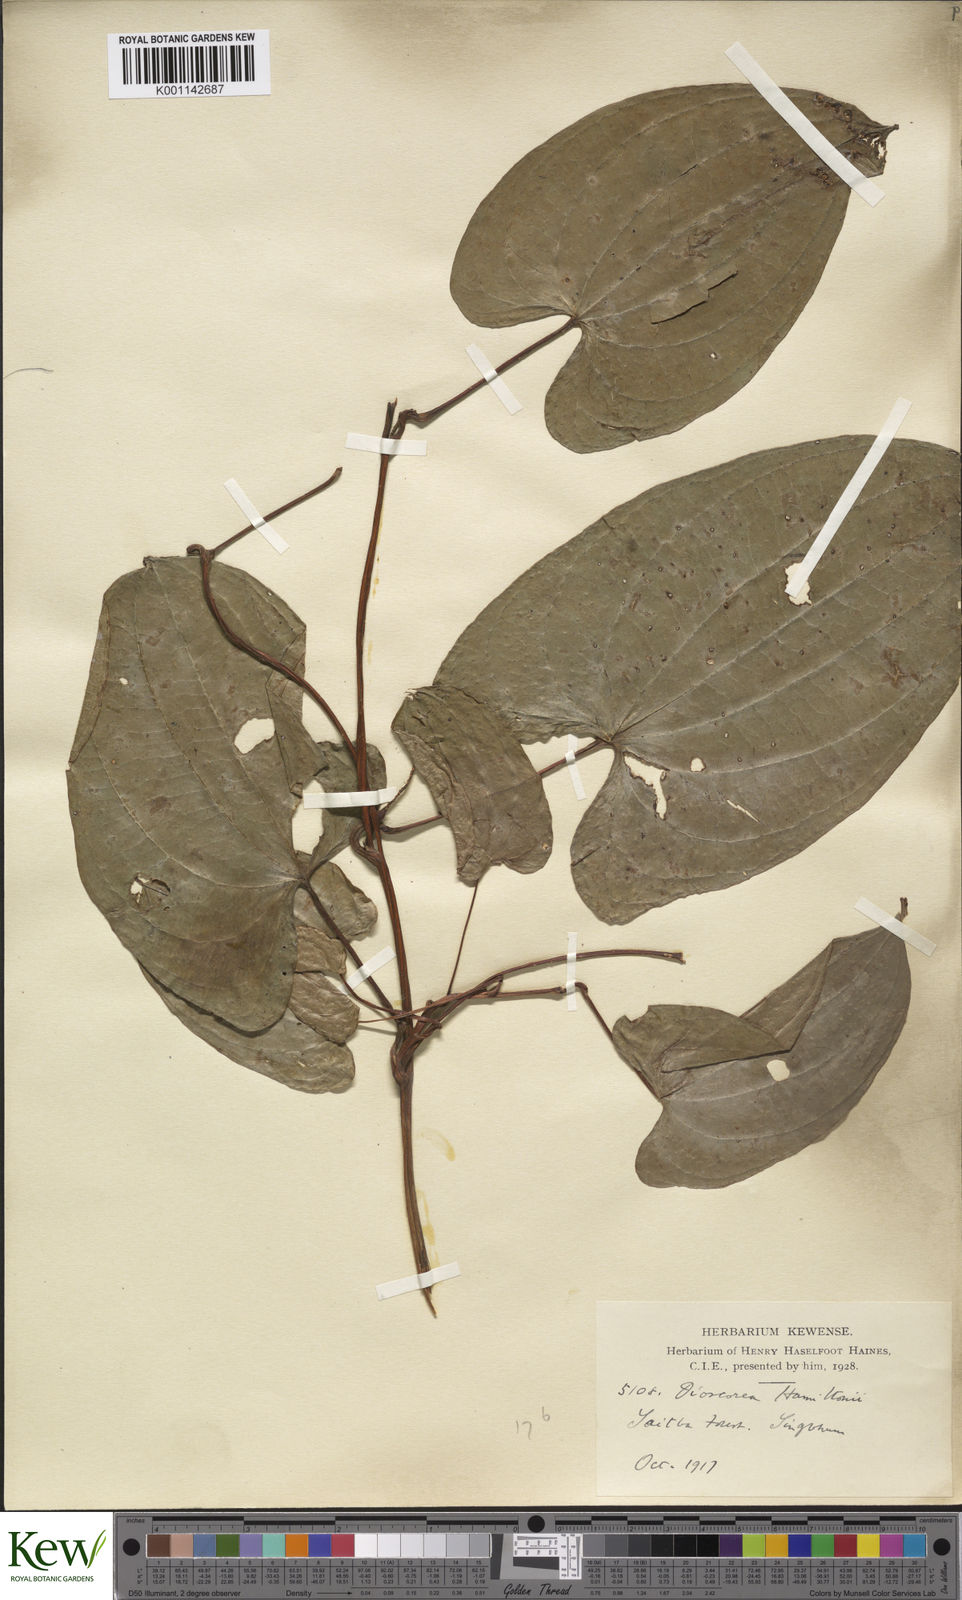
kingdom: Plantae
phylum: Tracheophyta
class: Liliopsida
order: Dioscoreales
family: Dioscoreaceae
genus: Dioscorea
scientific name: Dioscorea hamiltonii
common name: Mountain yam
